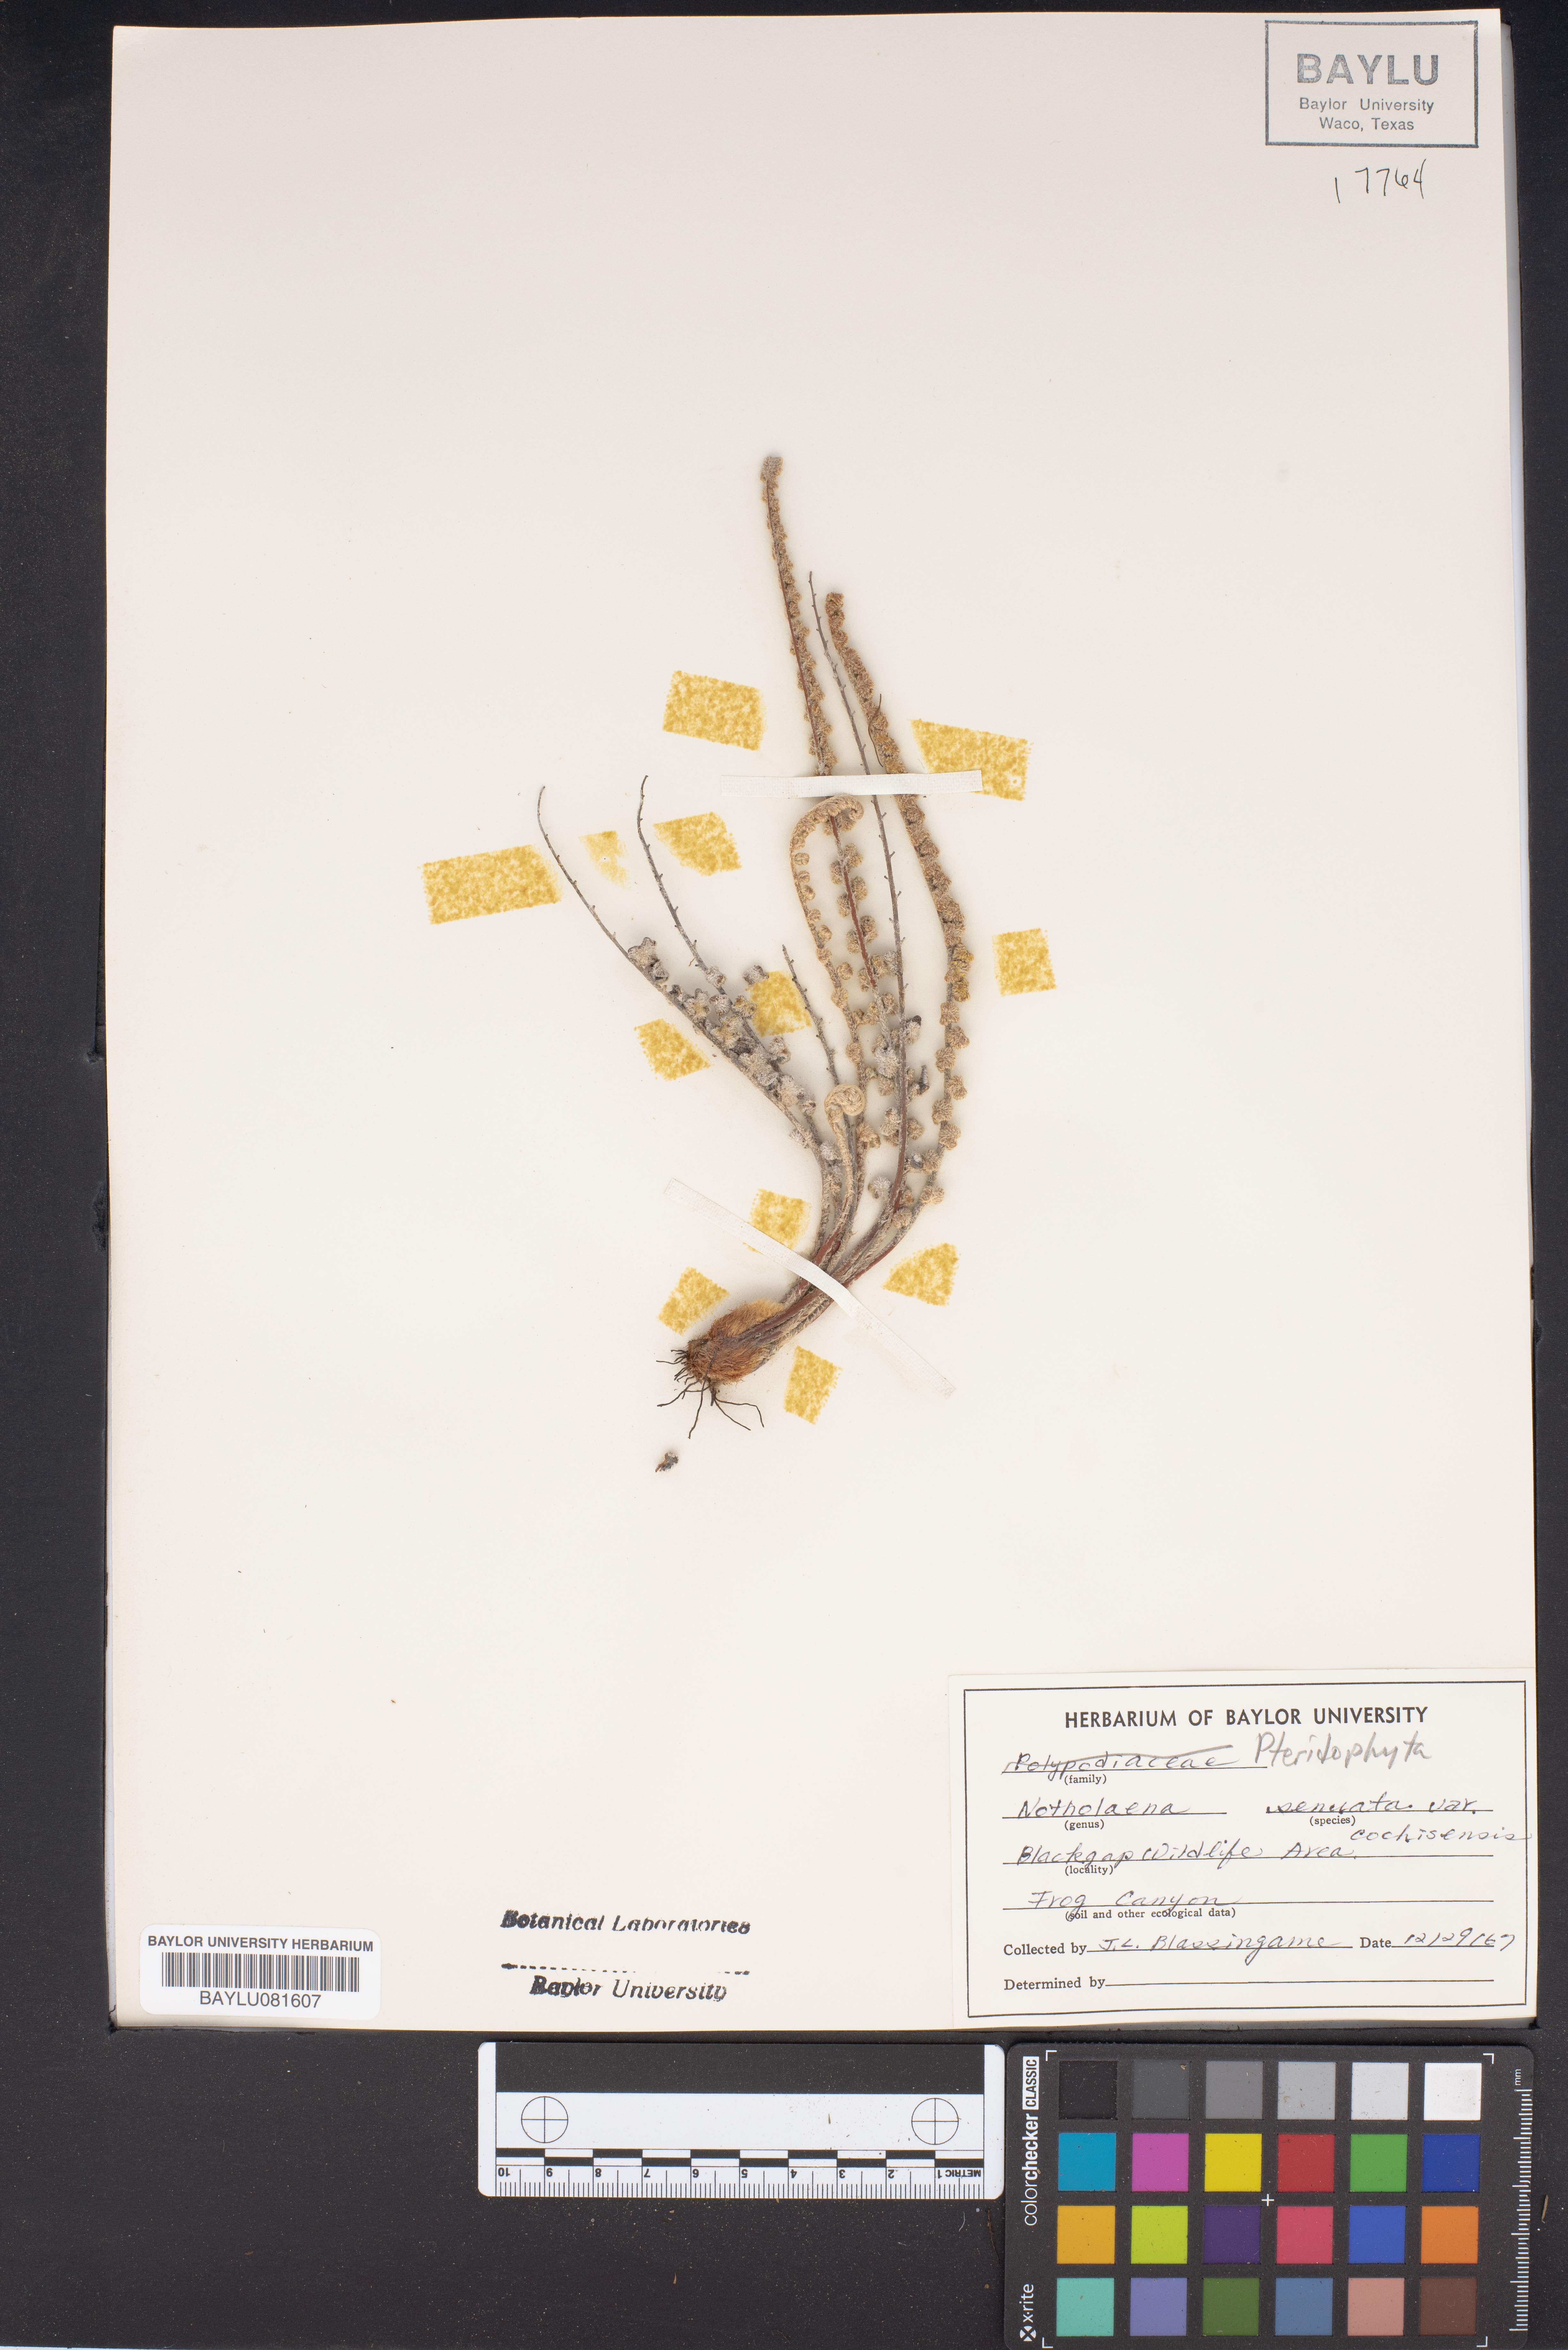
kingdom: Plantae
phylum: Tracheophyta
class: Polypodiopsida
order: Polypodiales
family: Pteridaceae
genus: Astrolepis
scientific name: Astrolepis cochisensis
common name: Scaly cloak fern
